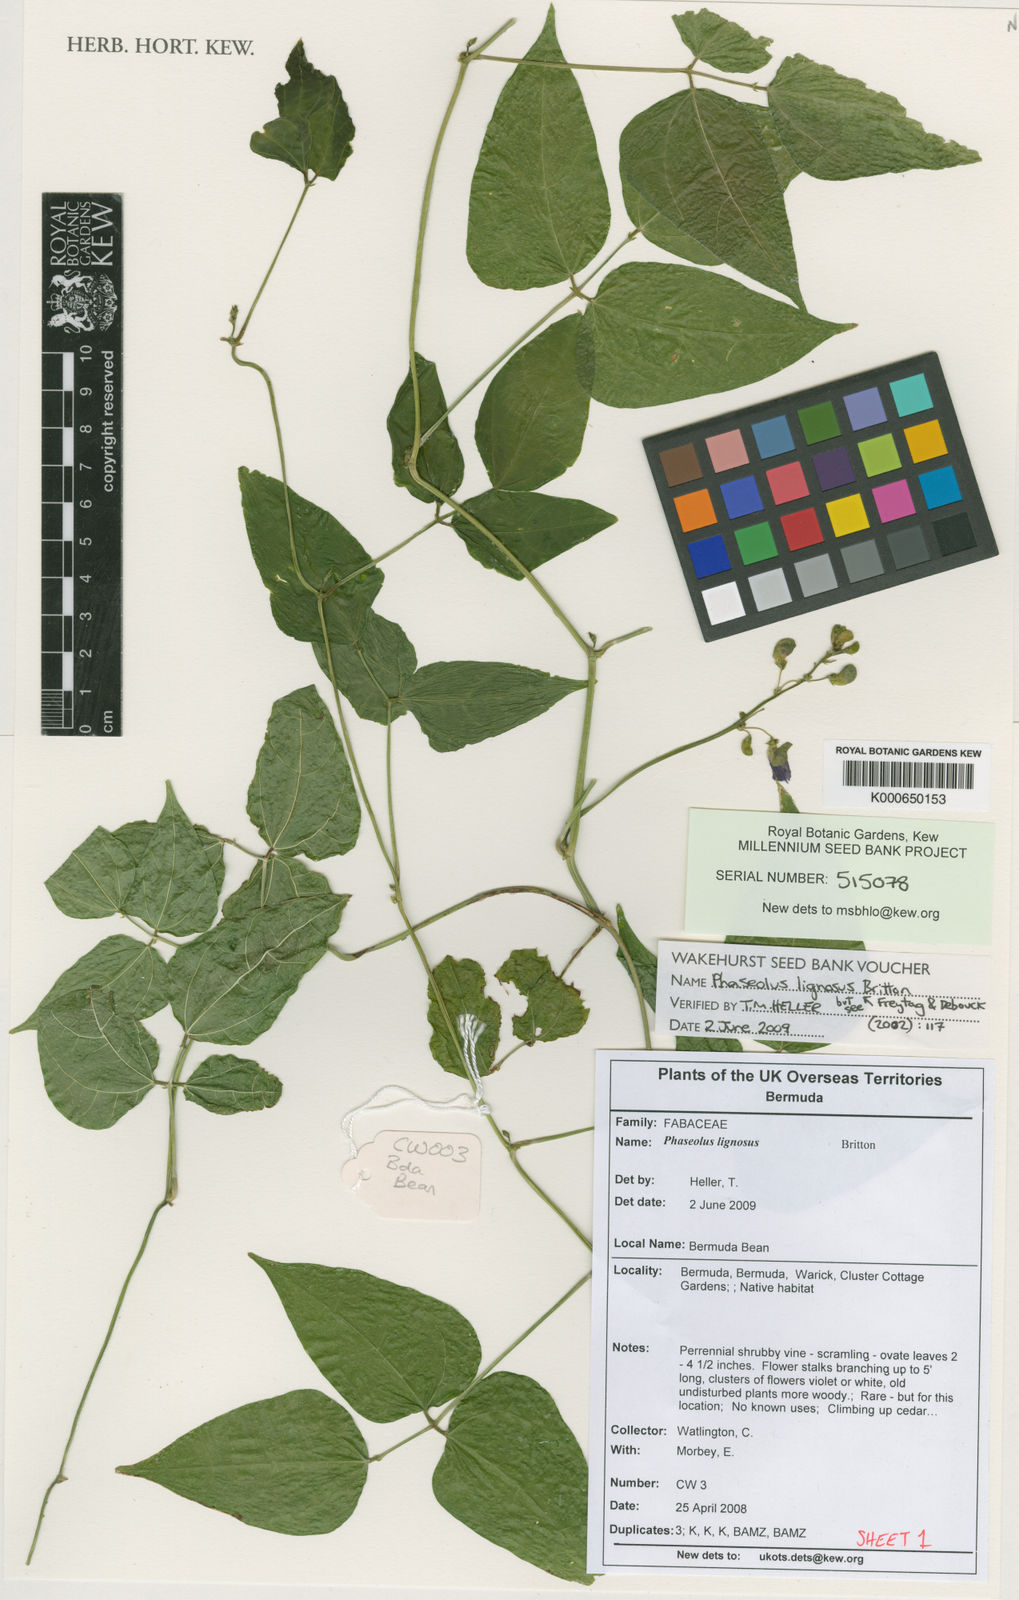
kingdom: Plantae
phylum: Tracheophyta
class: Magnoliopsida
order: Fabales
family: Fabaceae
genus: Phaseolus
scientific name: Phaseolus lignosus
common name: Bermuda bean
